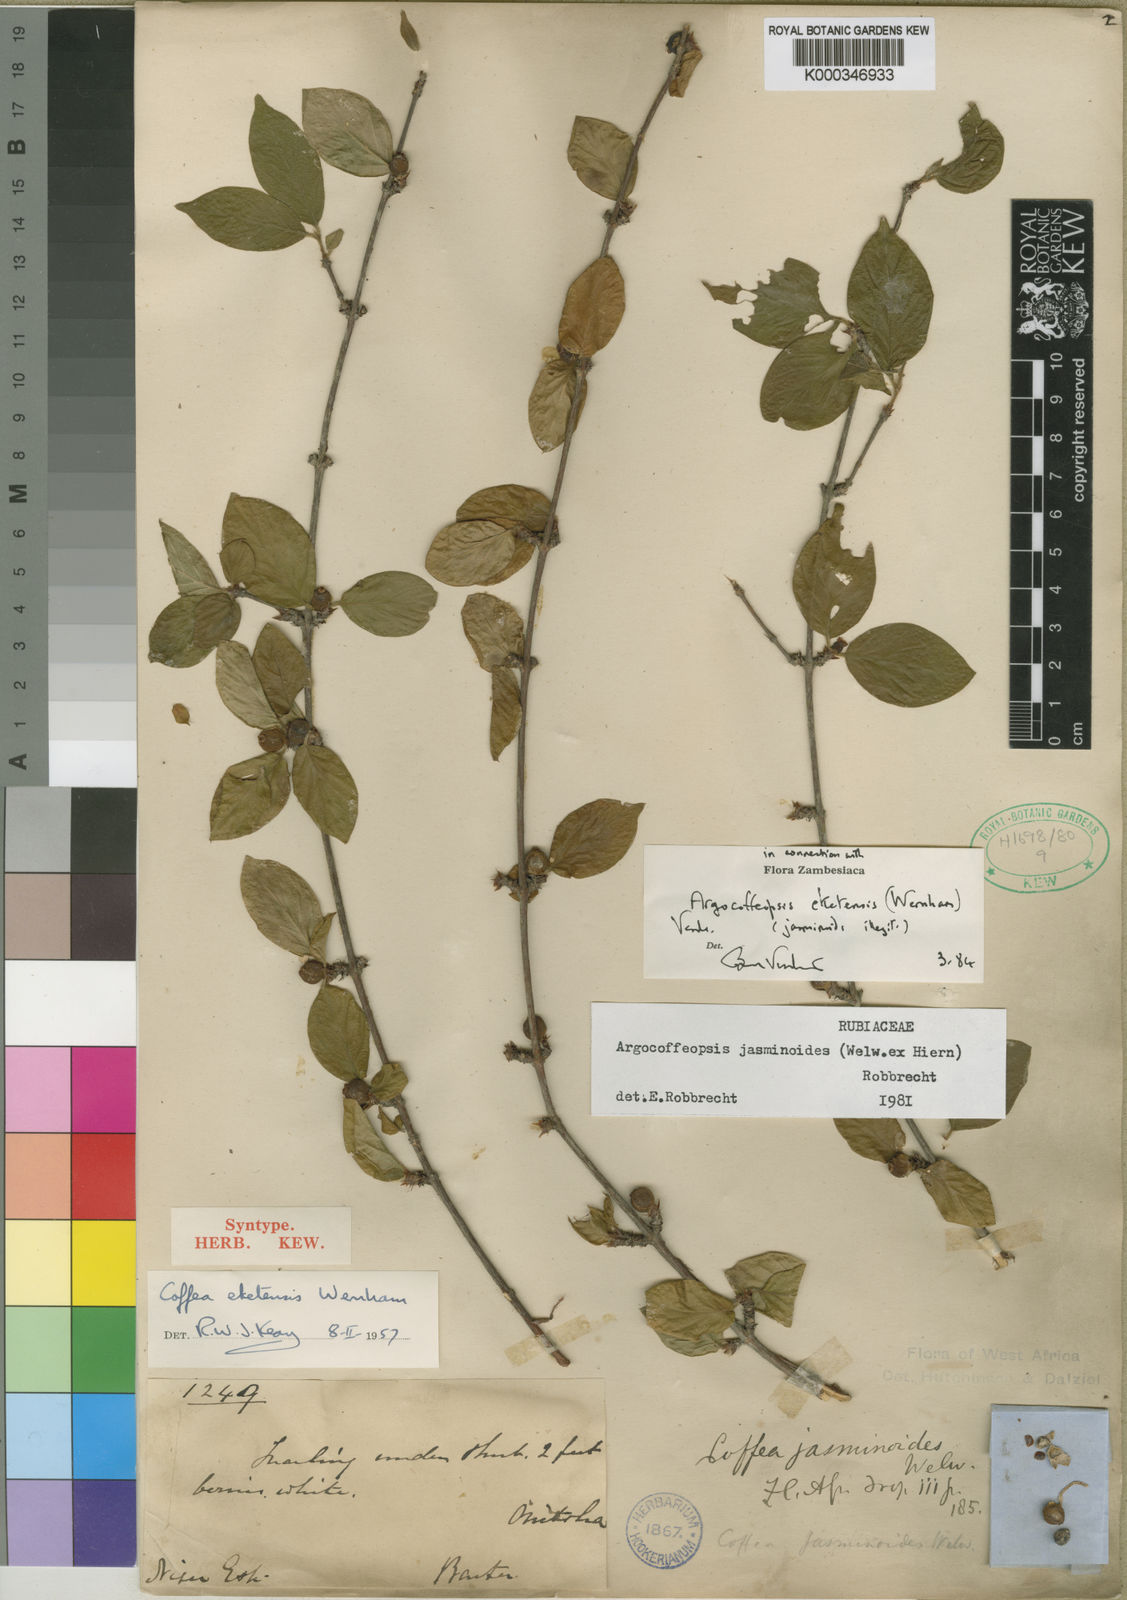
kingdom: Plantae
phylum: Tracheophyta
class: Magnoliopsida
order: Gentianales
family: Rubiaceae
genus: Argocoffeopsis
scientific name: Argocoffeopsis eketensis
